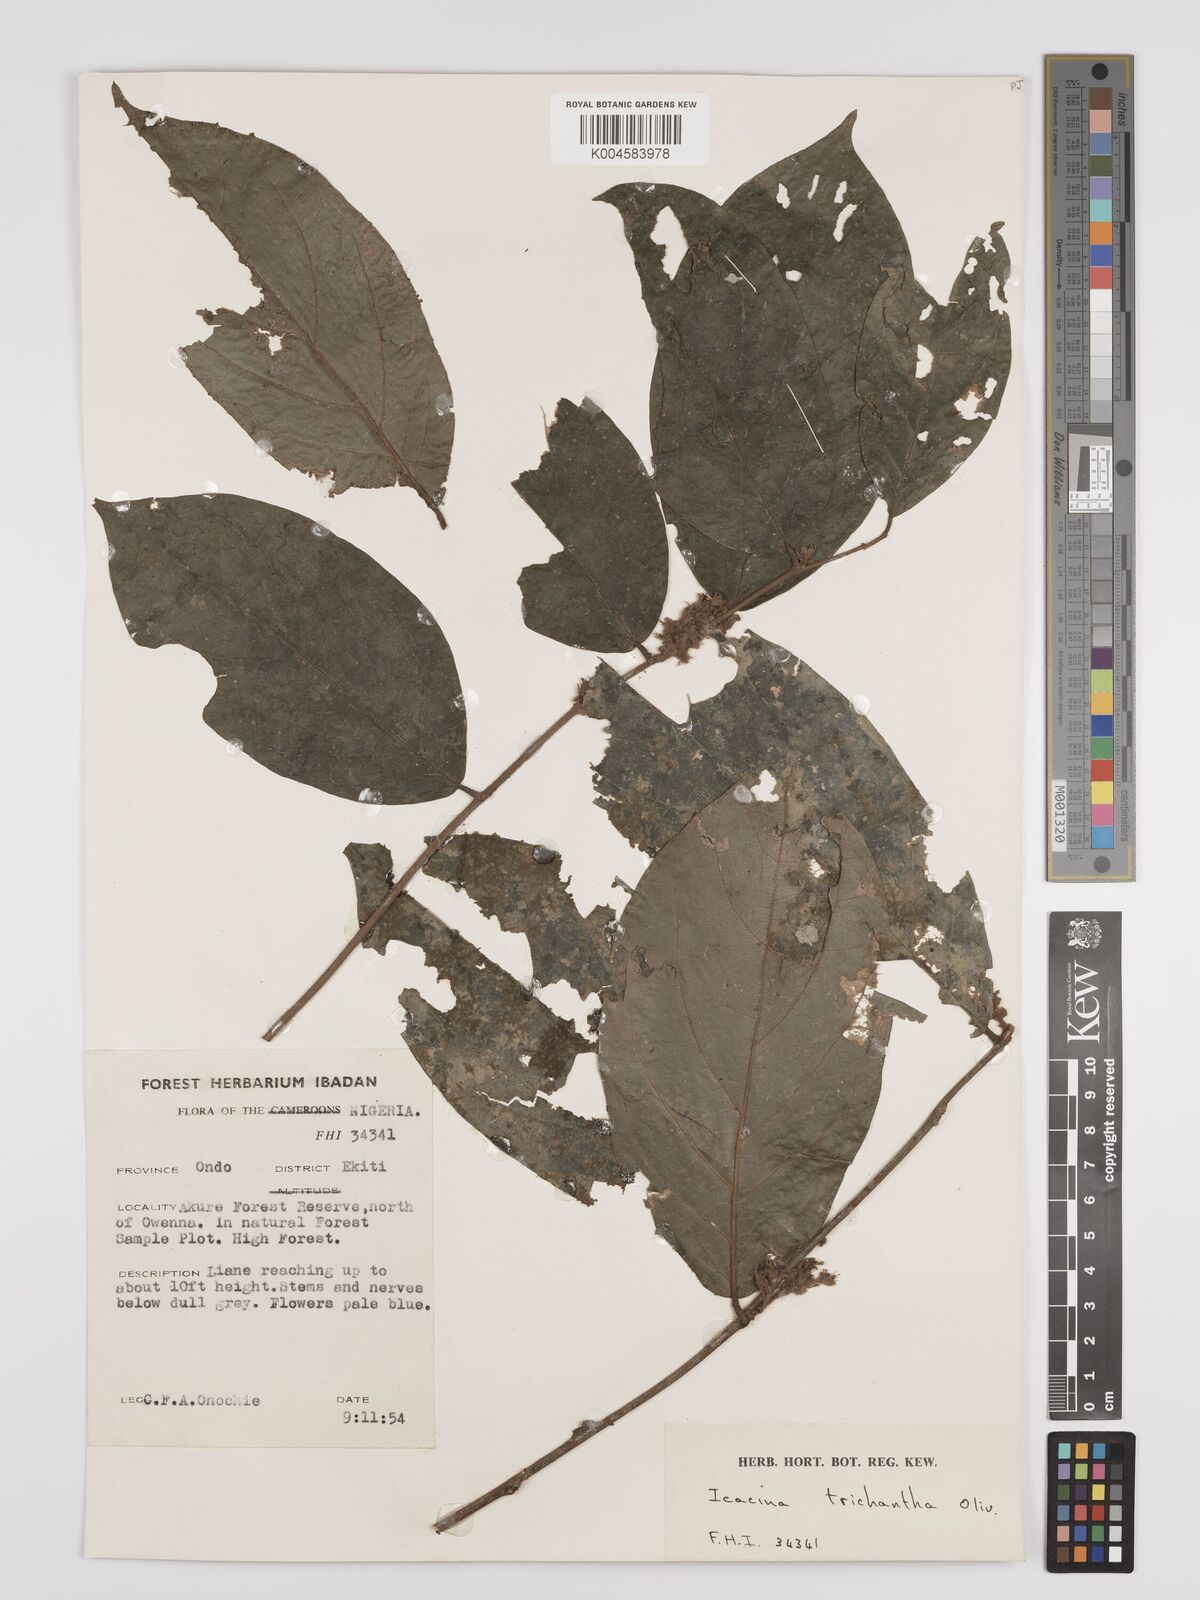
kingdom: Plantae
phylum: Tracheophyta
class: Magnoliopsida
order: Icacinales
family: Icacinaceae
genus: Icacina
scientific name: Icacina trichantha
